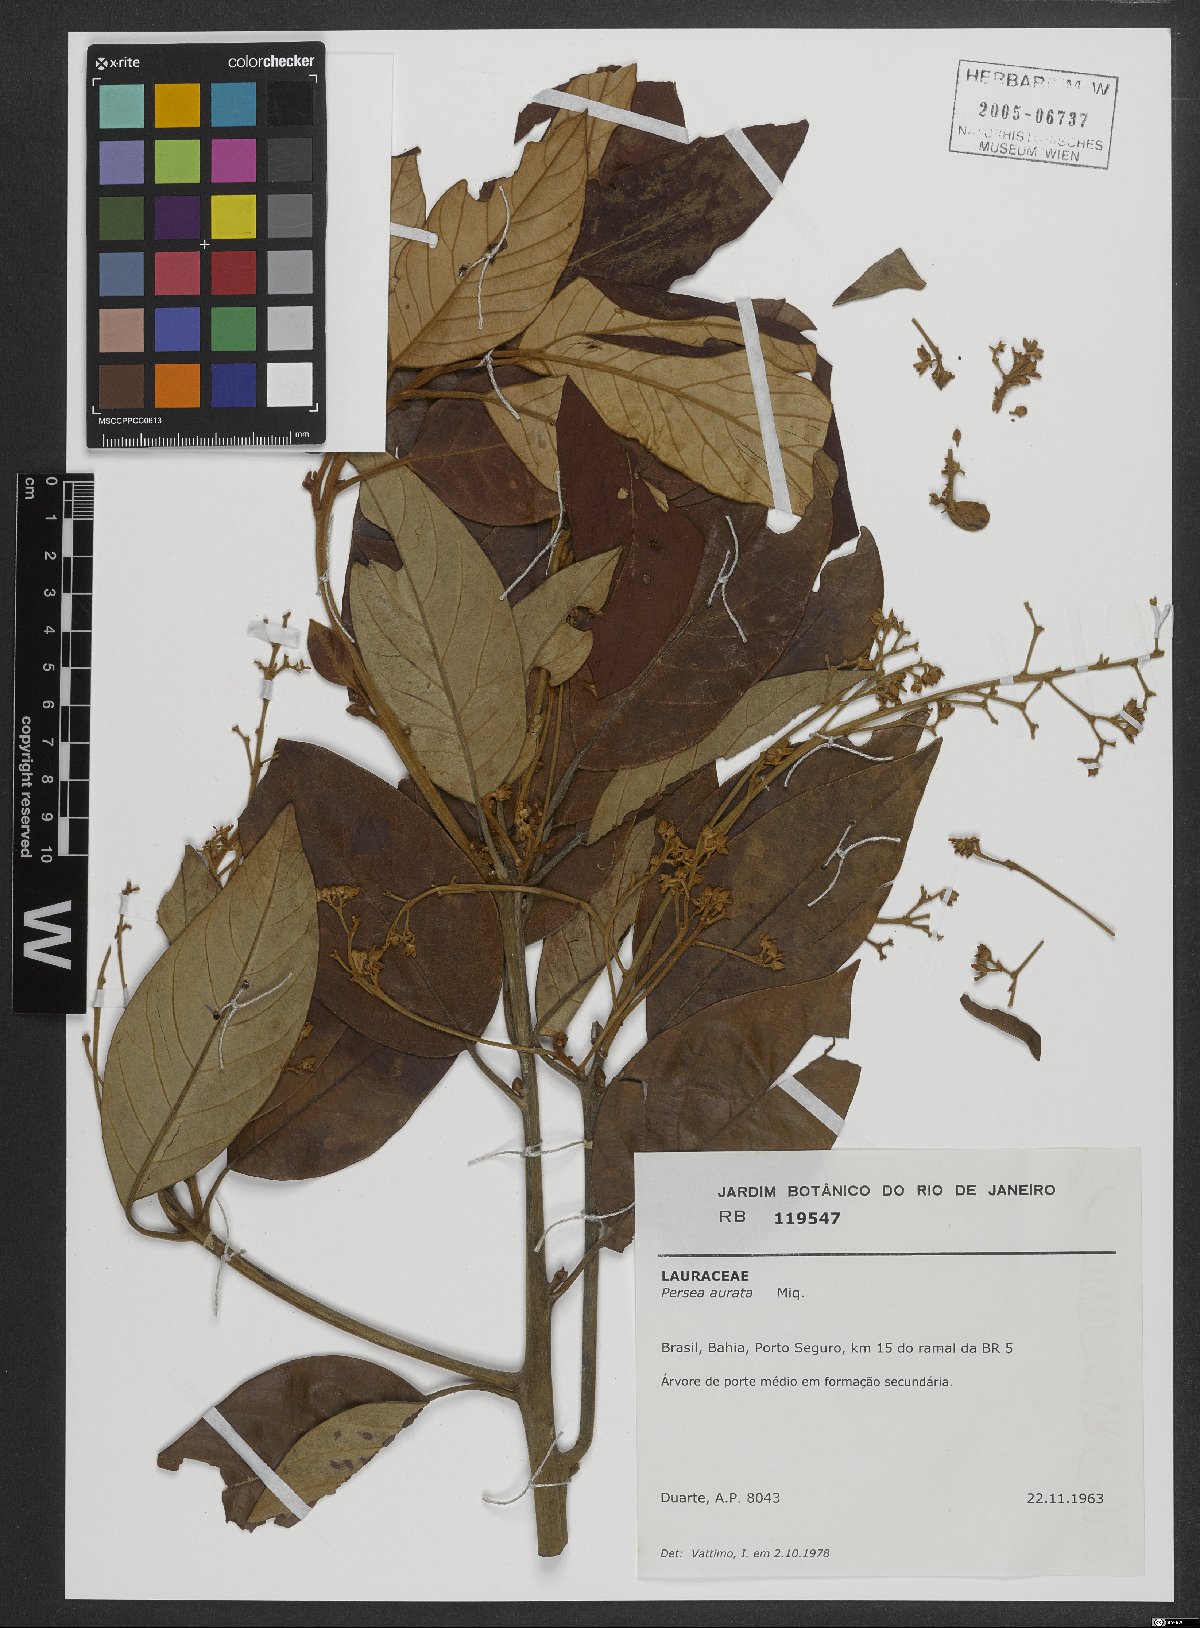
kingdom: Plantae
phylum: Tracheophyta
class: Magnoliopsida
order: Laurales
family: Lauraceae
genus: Persea
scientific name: Persea aurata
